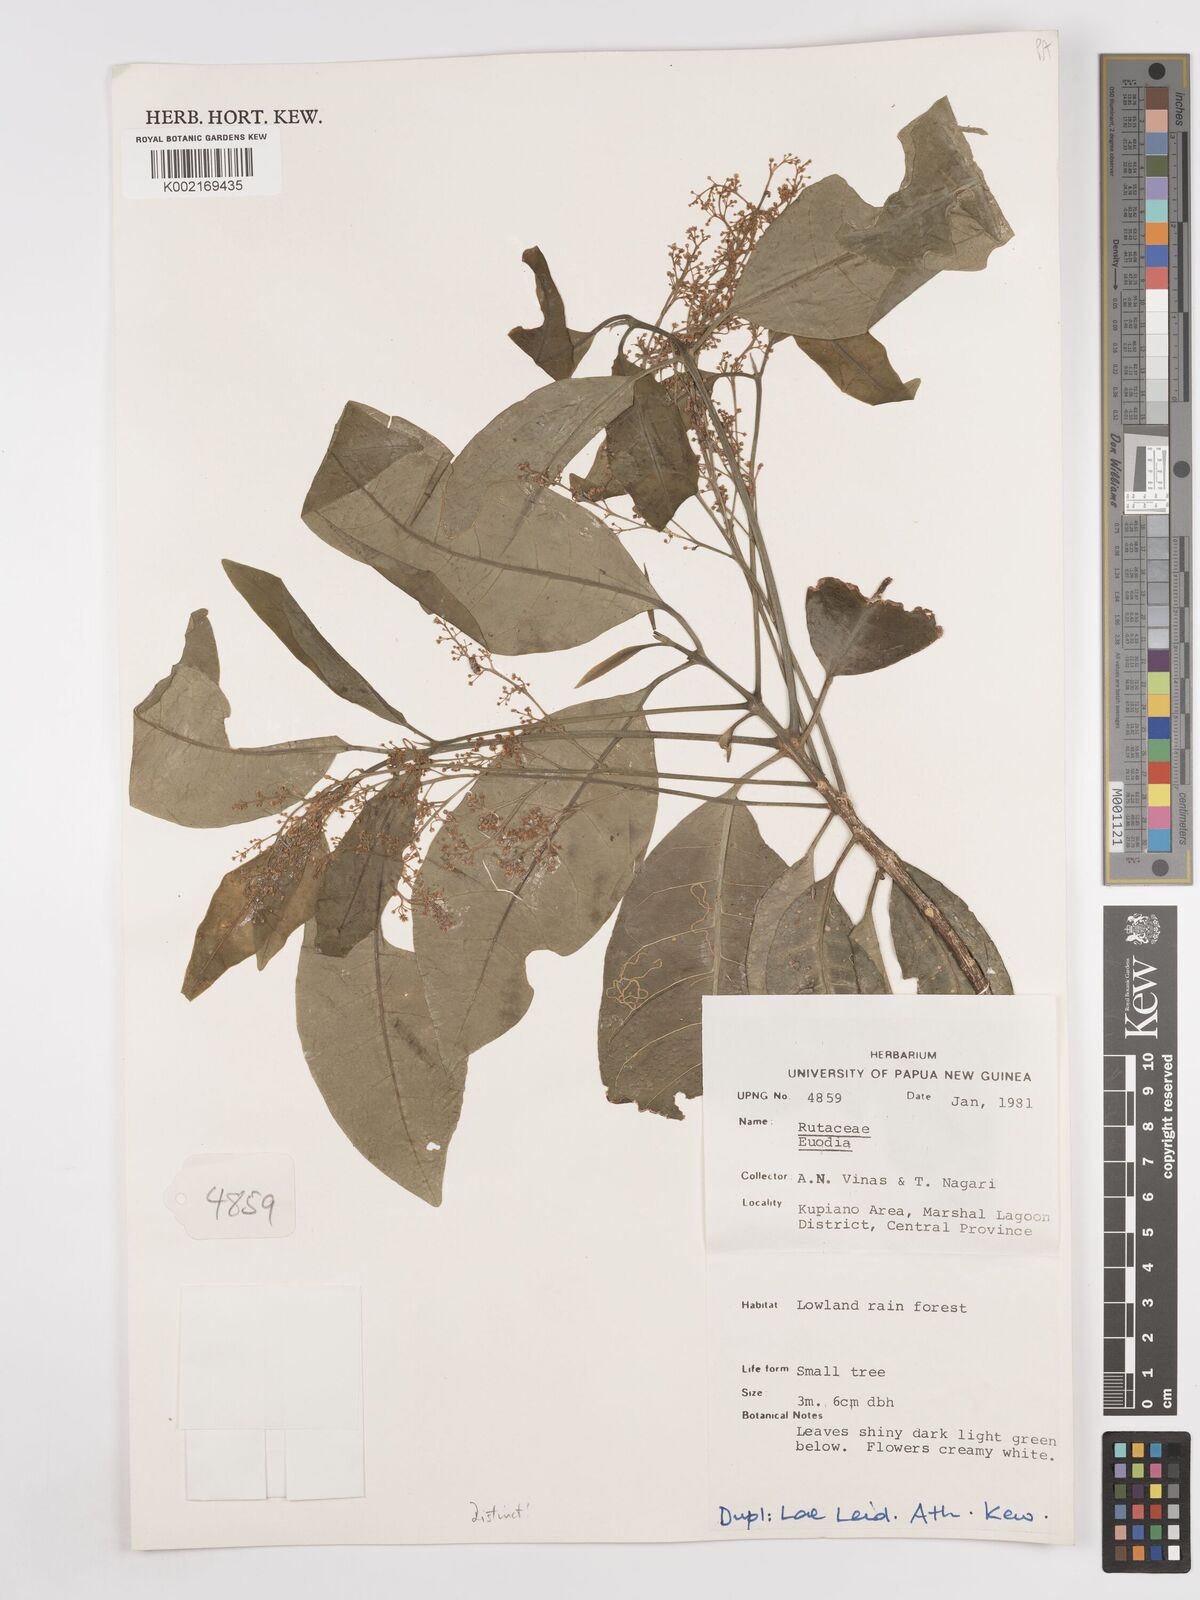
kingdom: Plantae
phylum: Tracheophyta
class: Magnoliopsida
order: Sapindales
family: Rutaceae
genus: Euodia
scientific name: Euodia
